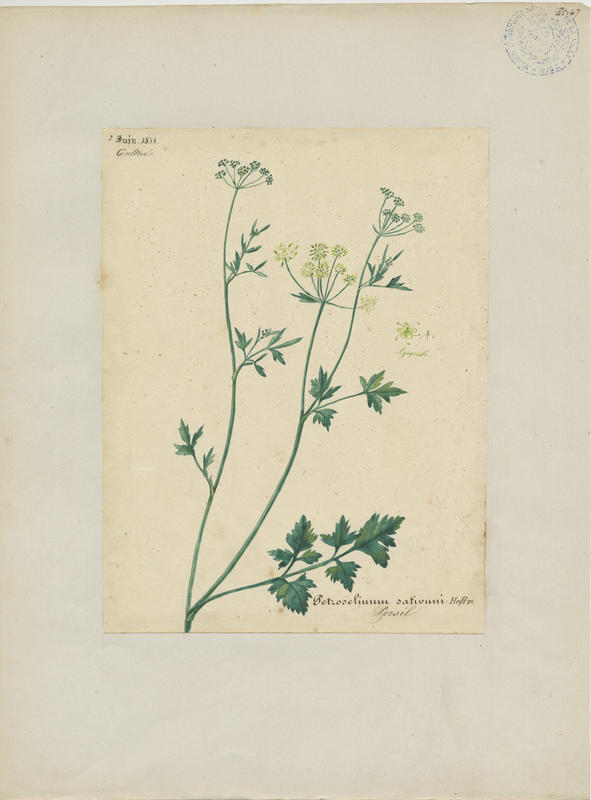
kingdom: Plantae
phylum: Tracheophyta
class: Magnoliopsida
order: Apiales
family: Apiaceae
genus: Petroselinum
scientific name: Petroselinum crispum
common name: Parsley
